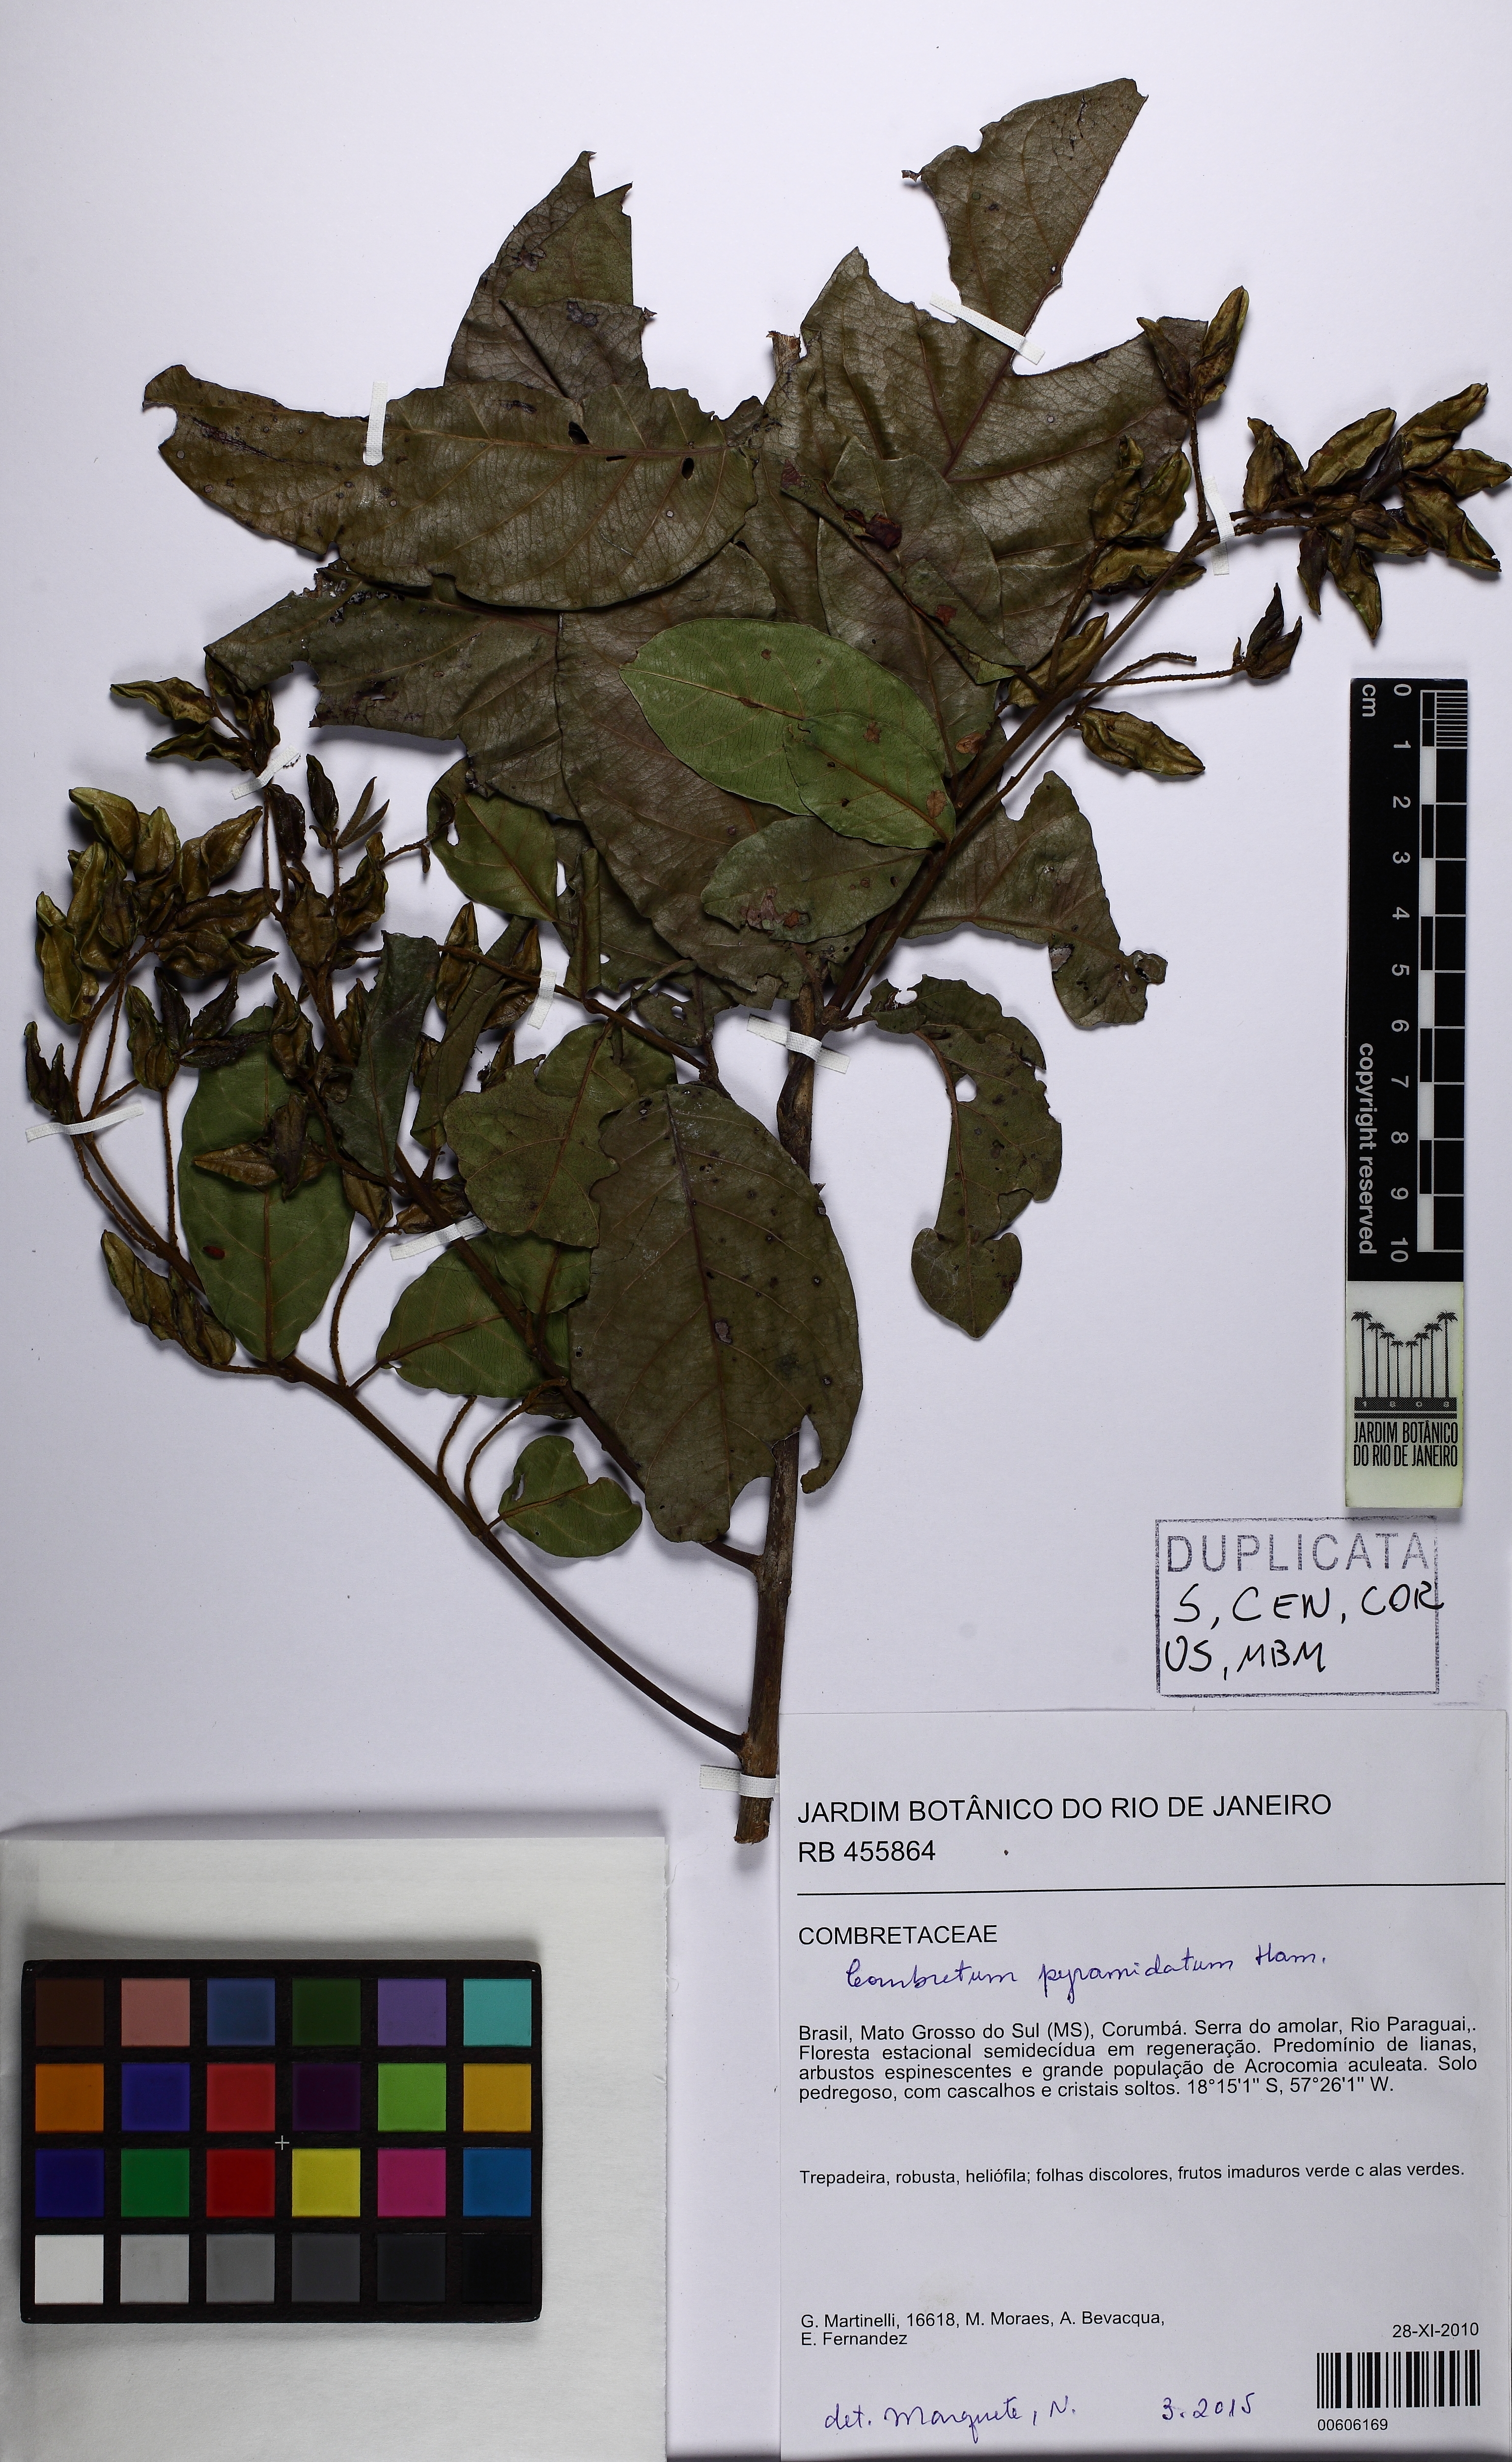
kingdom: Plantae
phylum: Tracheophyta
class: Magnoliopsida
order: Myrtales
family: Combretaceae
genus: Combretum
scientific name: Combretum pyramidatum
